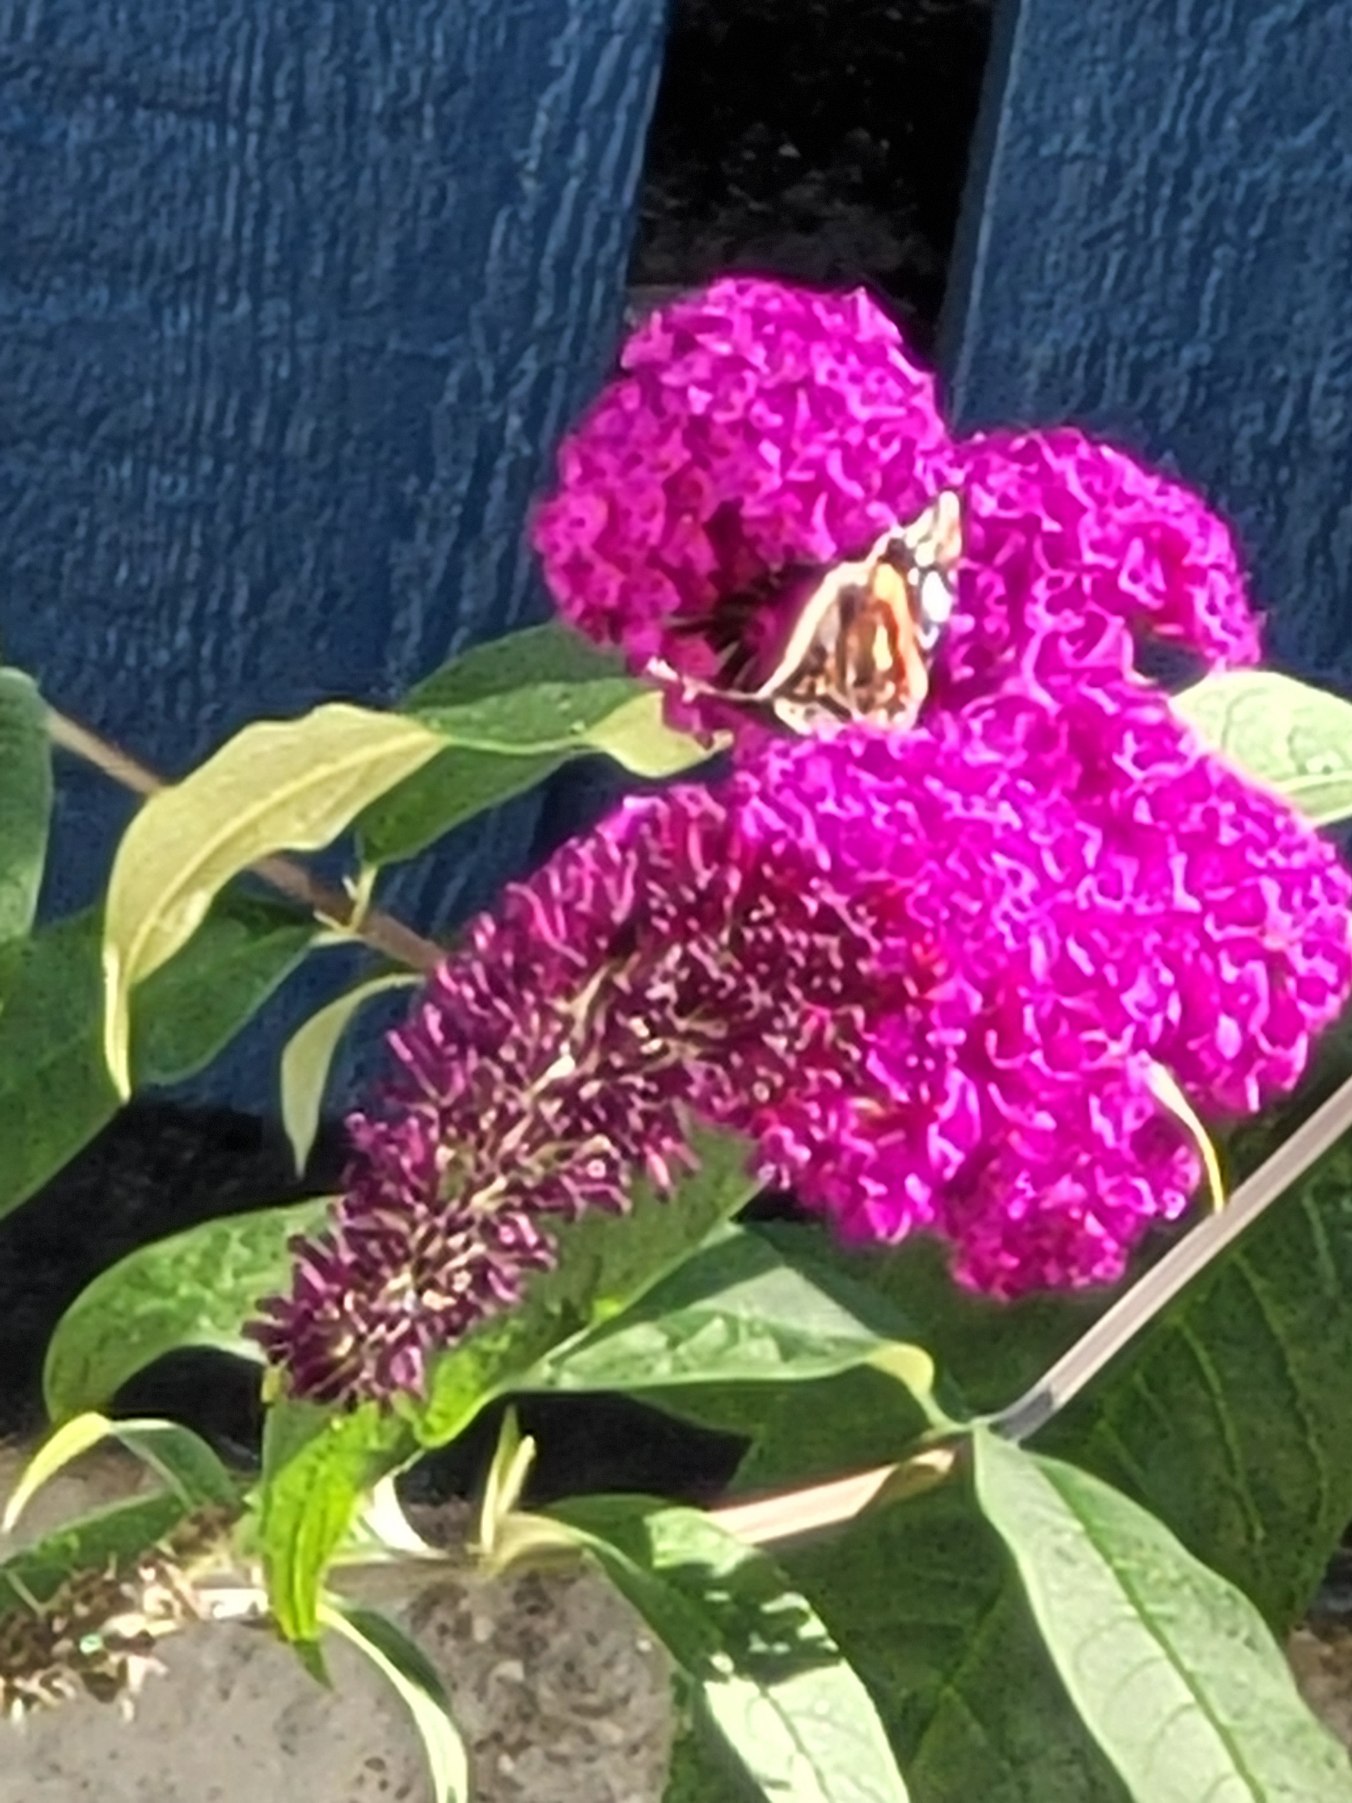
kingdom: Animalia
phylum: Arthropoda
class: Insecta
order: Lepidoptera
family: Nymphalidae
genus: Vanessa
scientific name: Vanessa atalanta
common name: Admiral
